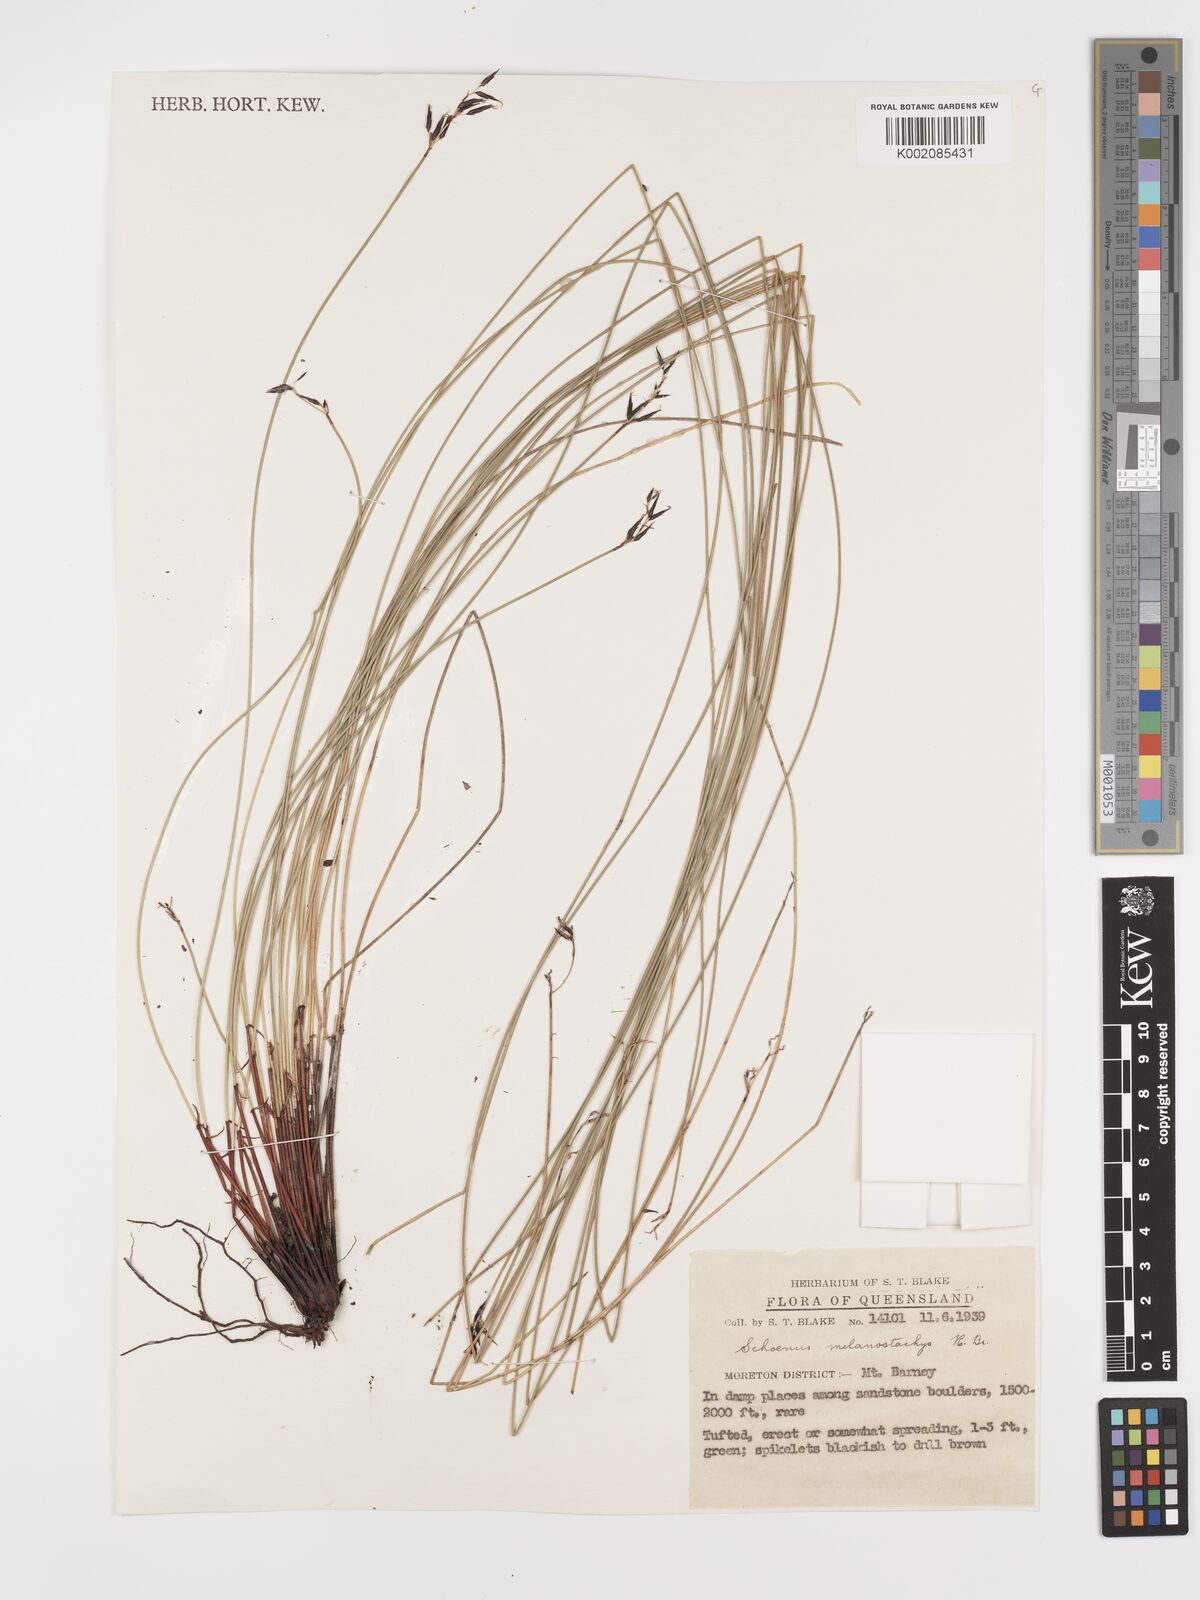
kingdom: Plantae
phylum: Tracheophyta
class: Liliopsida
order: Poales
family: Cyperaceae
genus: Schoenus
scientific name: Schoenus melanostachys
